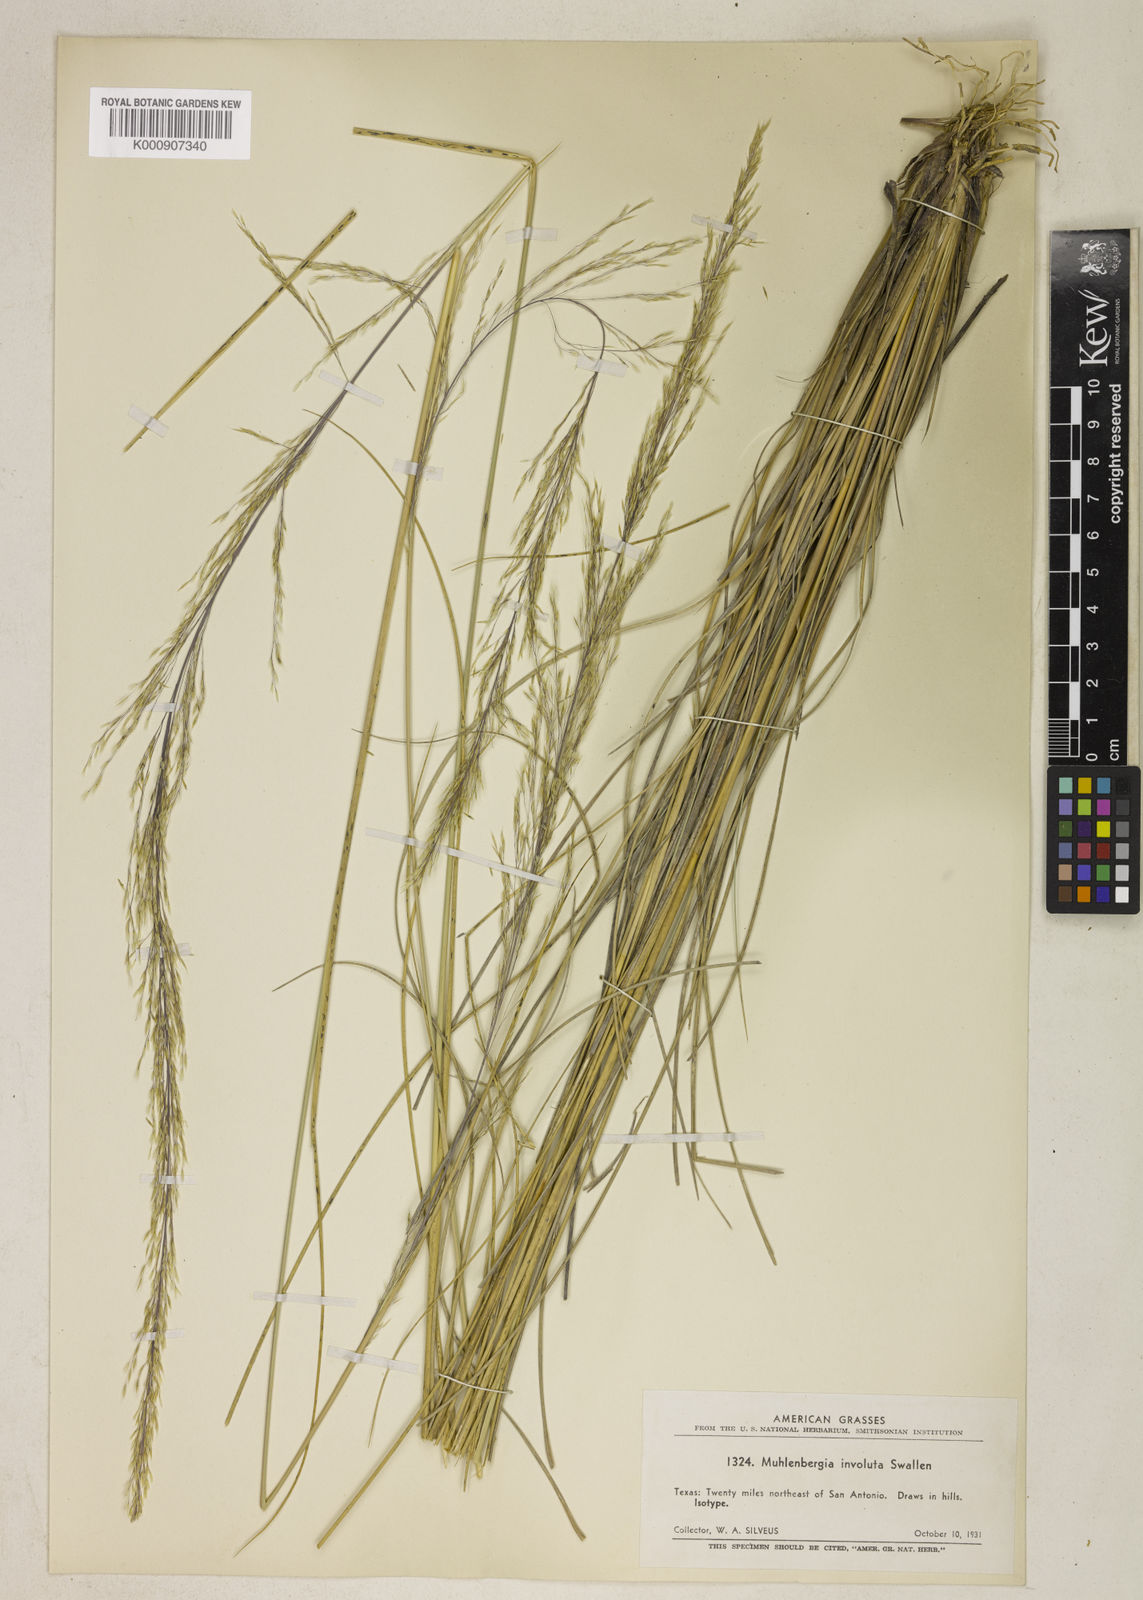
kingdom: Plantae
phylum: Tracheophyta
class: Liliopsida
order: Poales
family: Poaceae
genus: Muhlenbergia
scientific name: Muhlenbergia involuta
